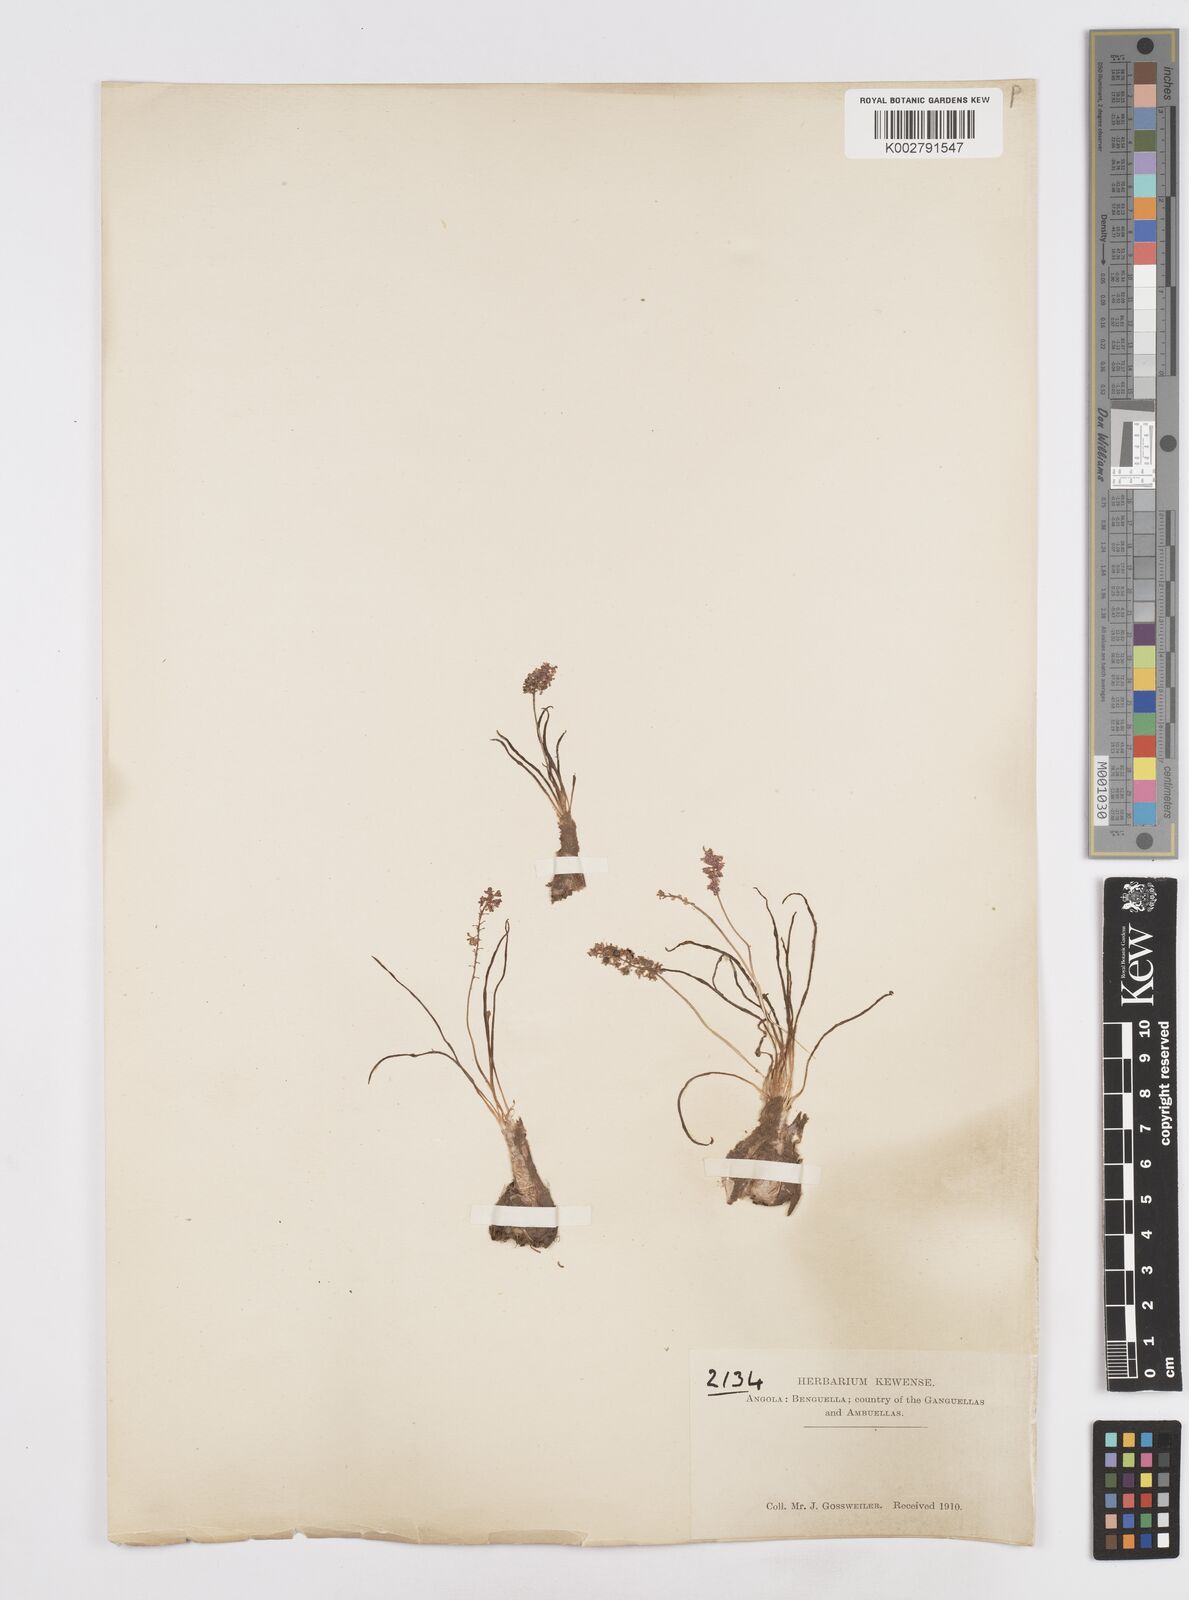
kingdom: Plantae
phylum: Tracheophyta
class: Liliopsida
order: Asparagales
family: Asparagaceae
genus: Scilla
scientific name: Scilla
